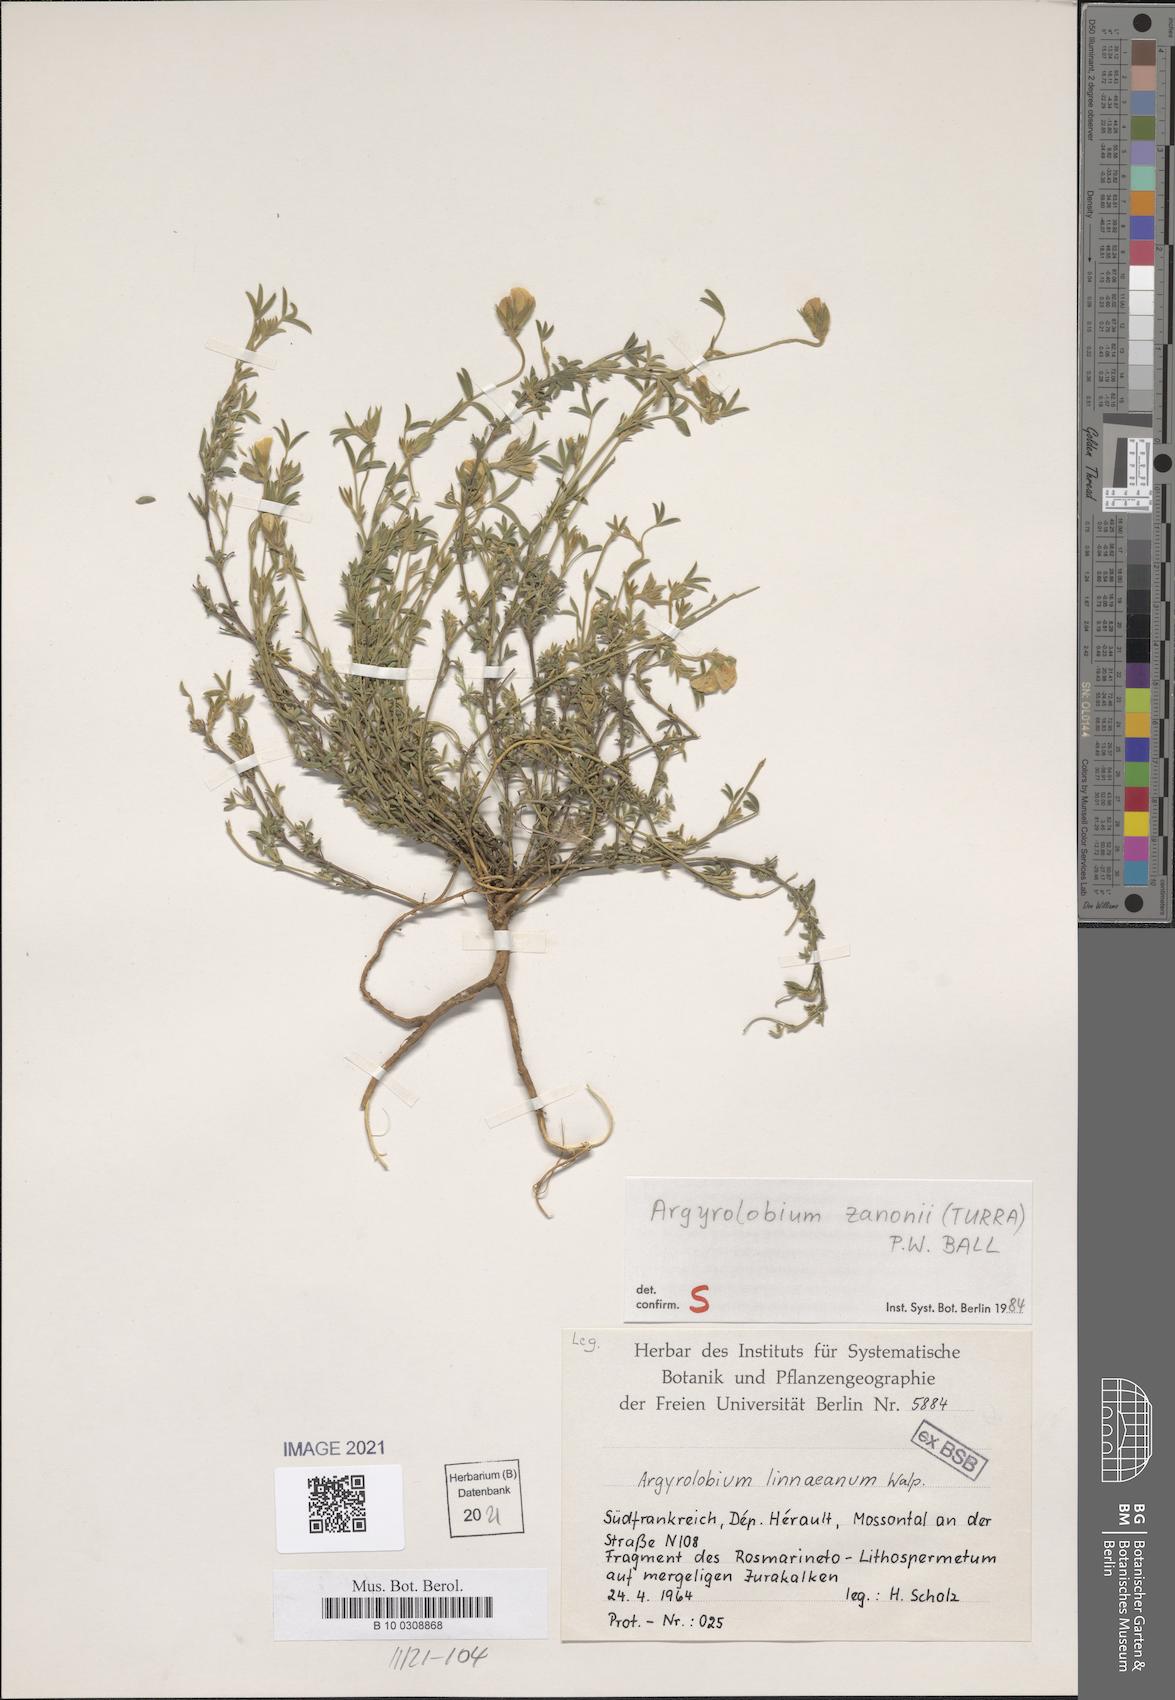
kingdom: Plantae
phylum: Tracheophyta
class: Magnoliopsida
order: Fabales
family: Fabaceae
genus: Argyrolobium
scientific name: Argyrolobium zanonii
